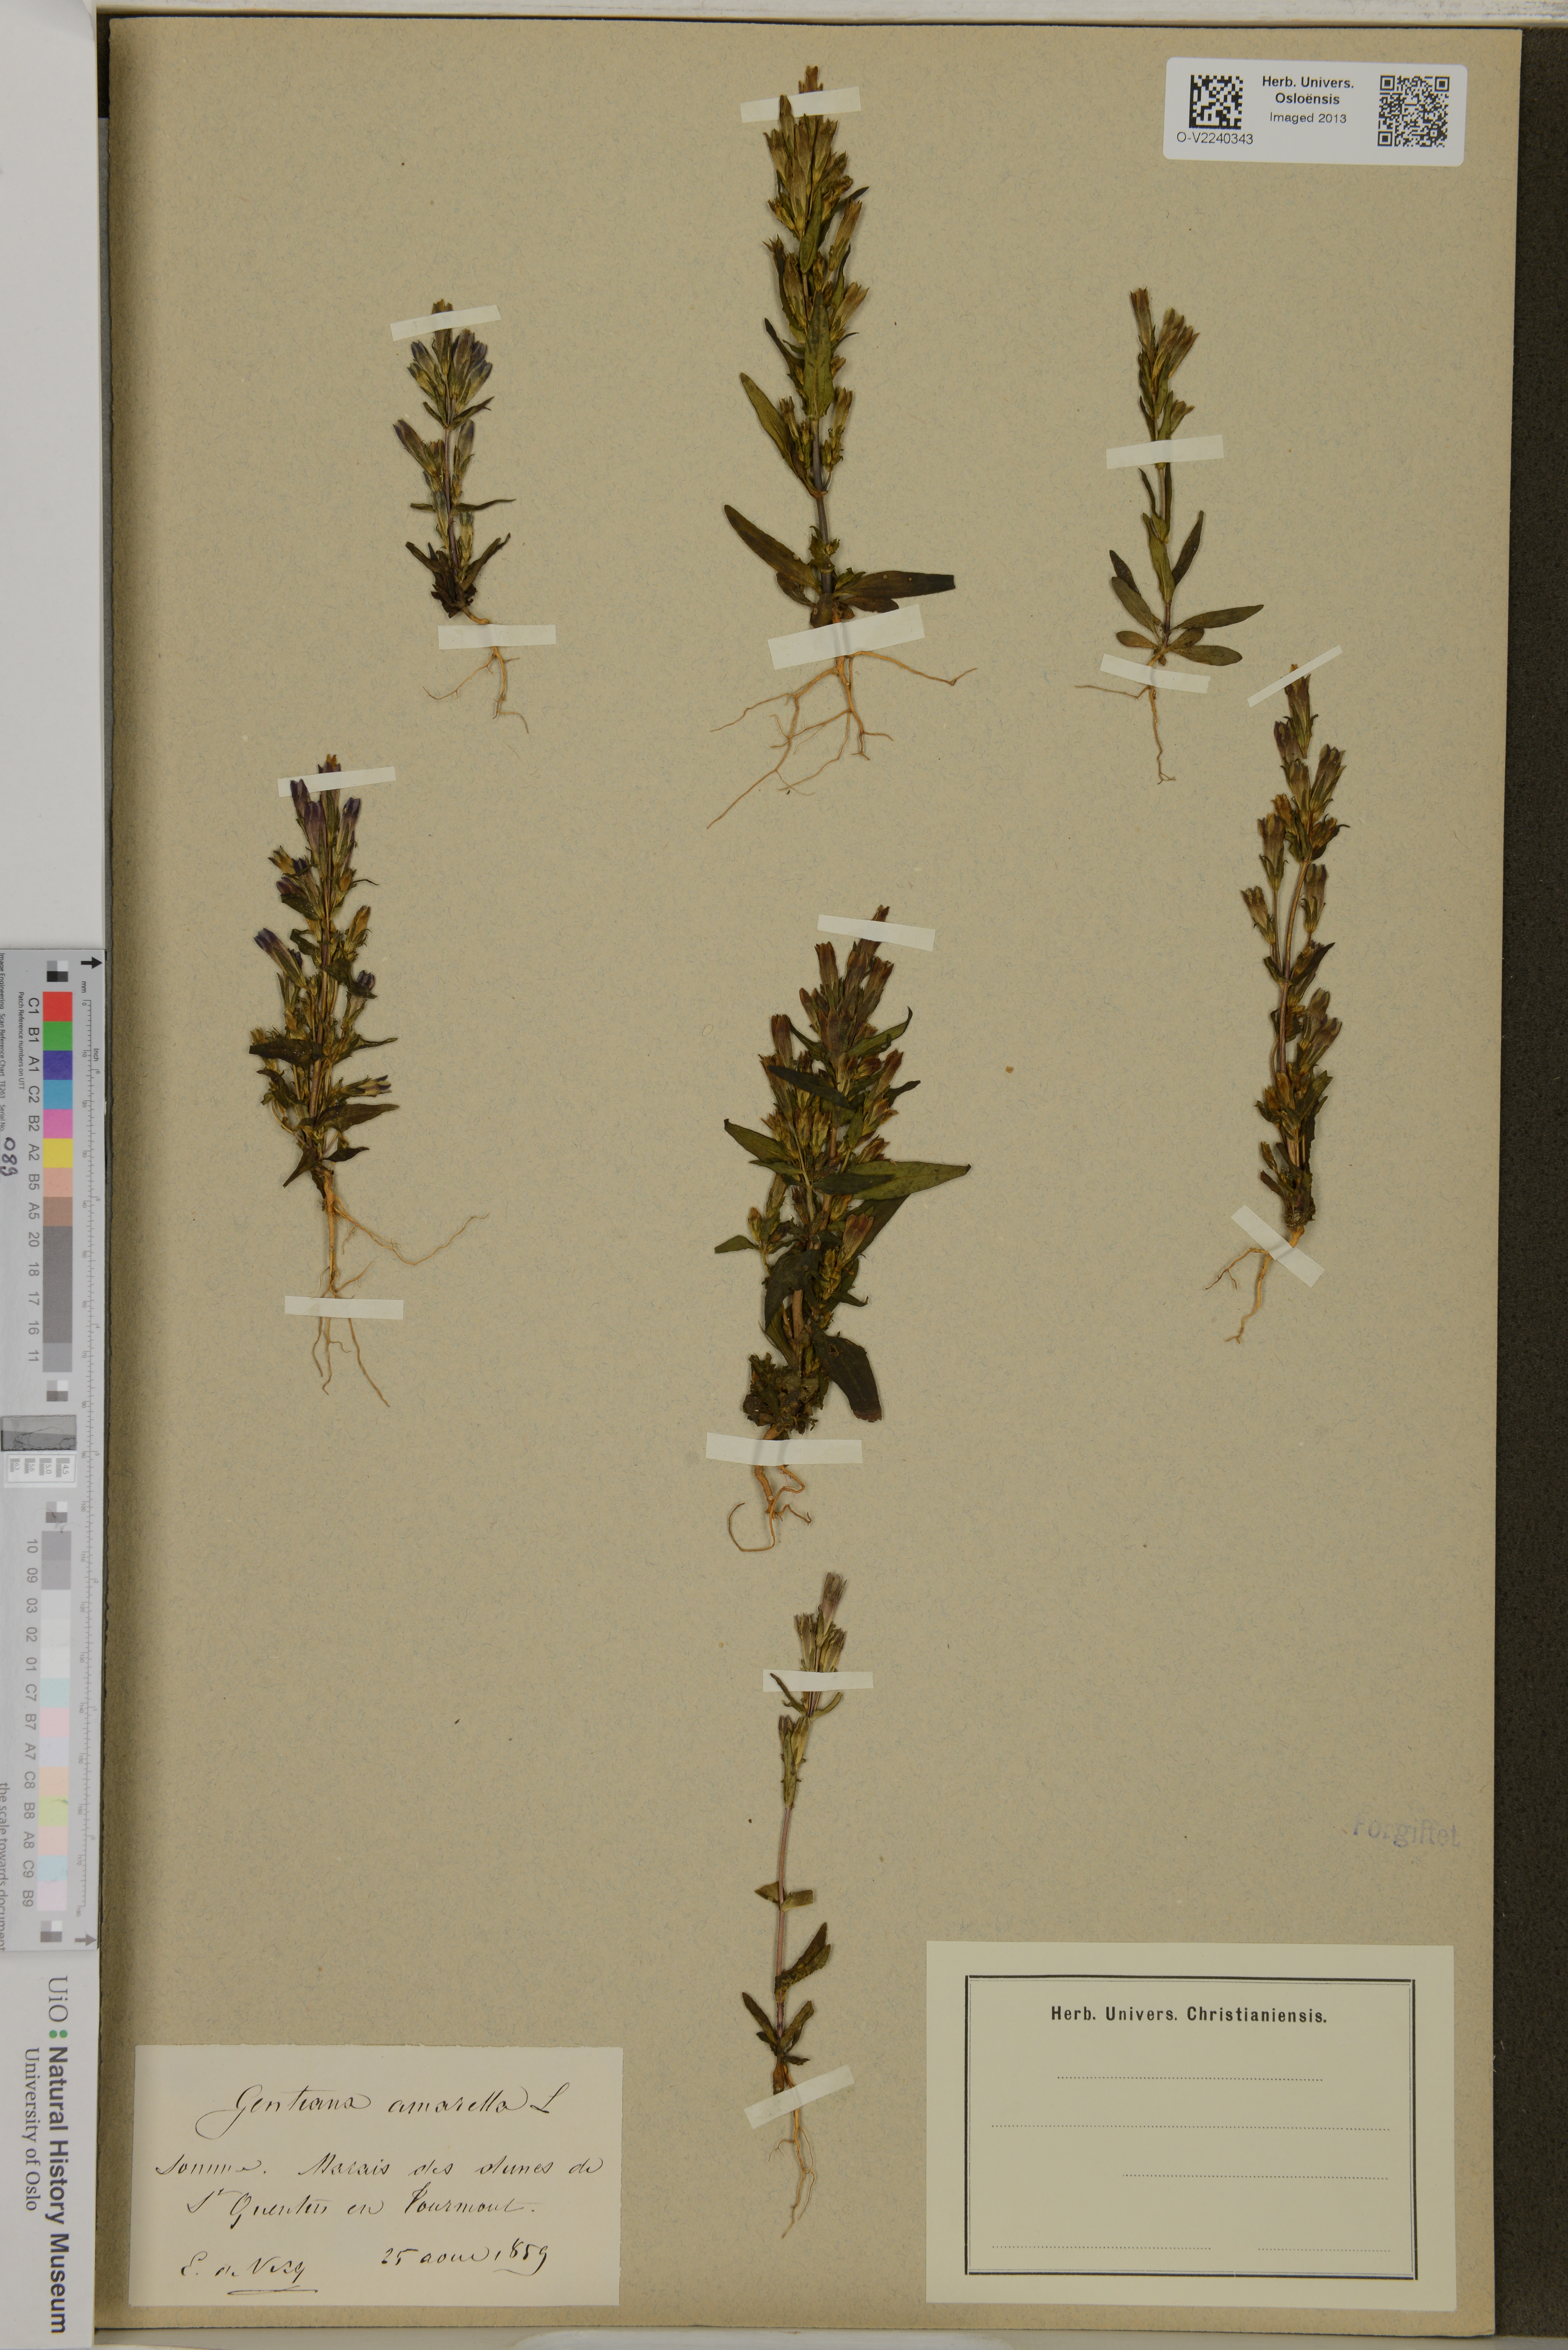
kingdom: Plantae
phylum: Tracheophyta
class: Magnoliopsida
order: Gentianales
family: Gentianaceae
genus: Gentianella
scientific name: Gentianella amarella
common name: Autumn gentian
